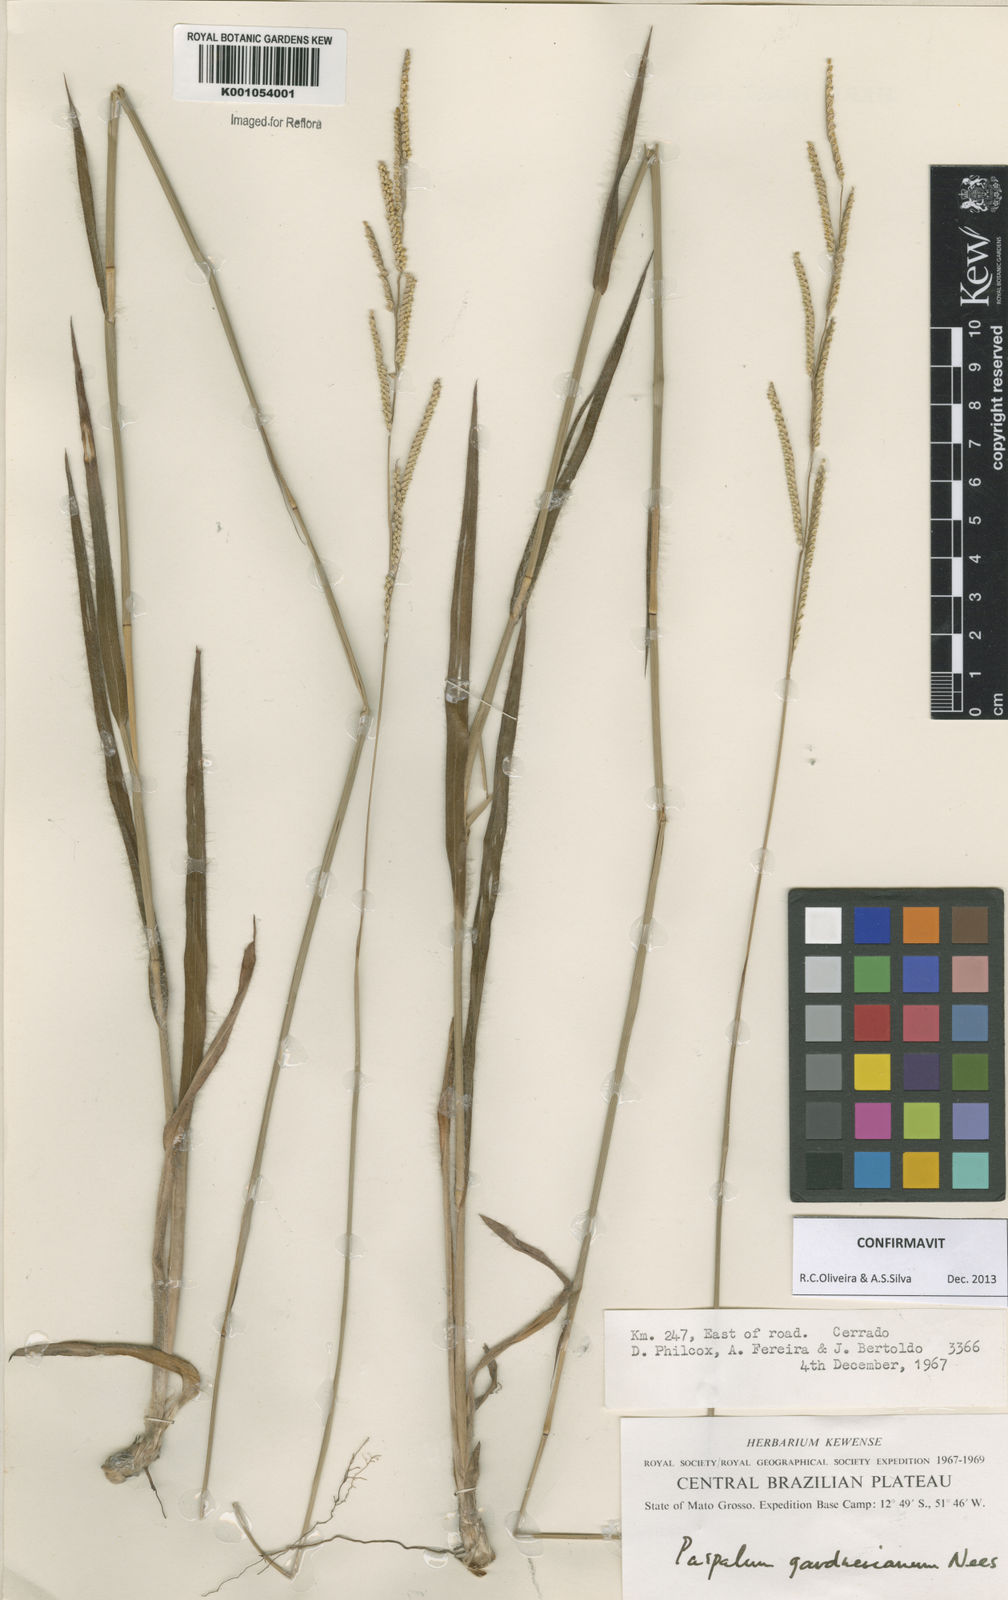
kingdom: Plantae
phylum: Tracheophyta
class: Liliopsida
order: Poales
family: Poaceae
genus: Paspalum
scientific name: Paspalum gardnerianum
